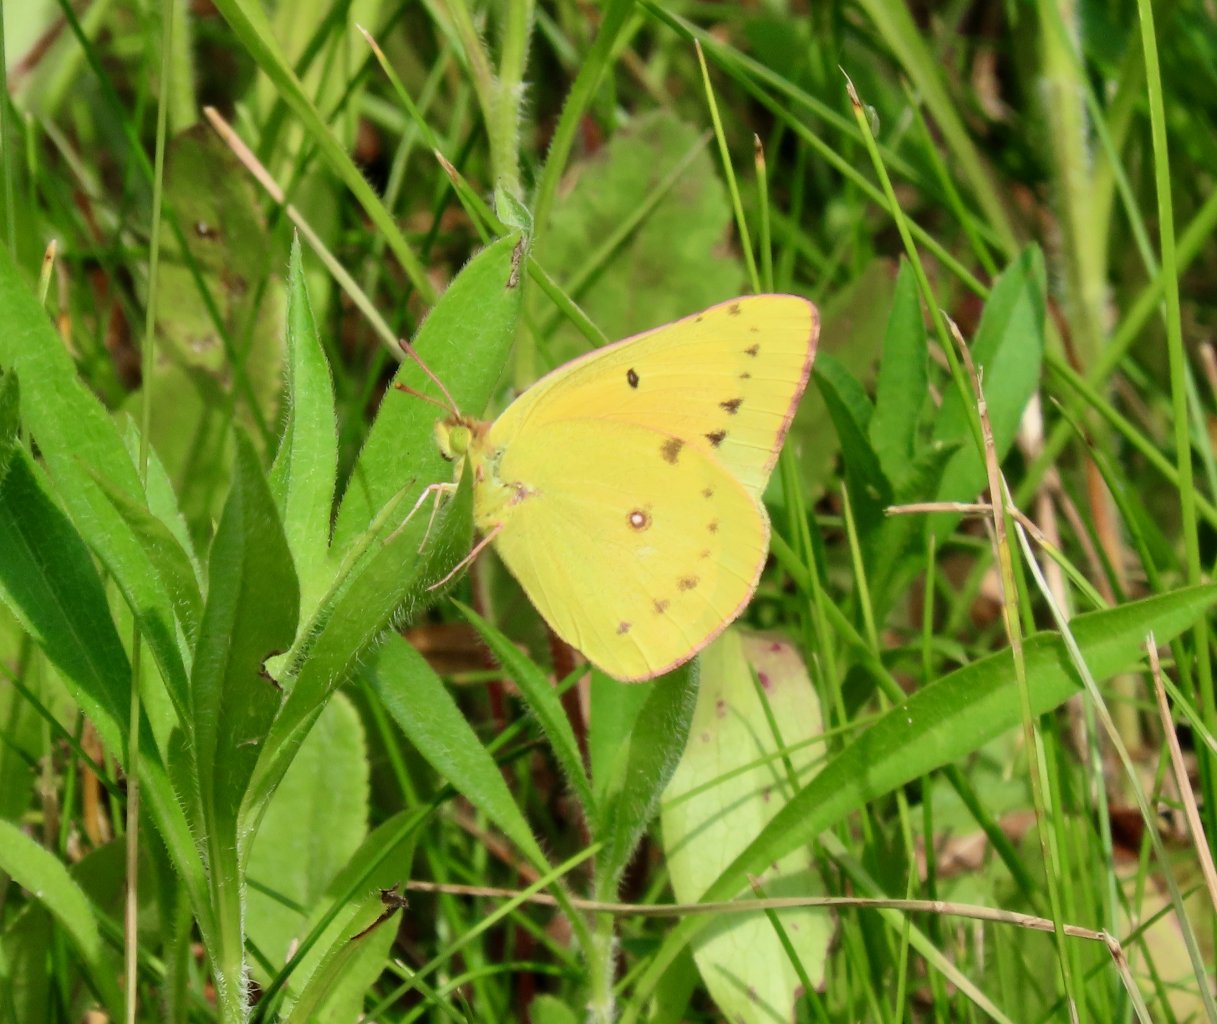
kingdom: Animalia
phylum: Arthropoda
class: Insecta
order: Lepidoptera
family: Pieridae
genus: Colias
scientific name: Colias eurytheme
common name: Orange Sulphur
